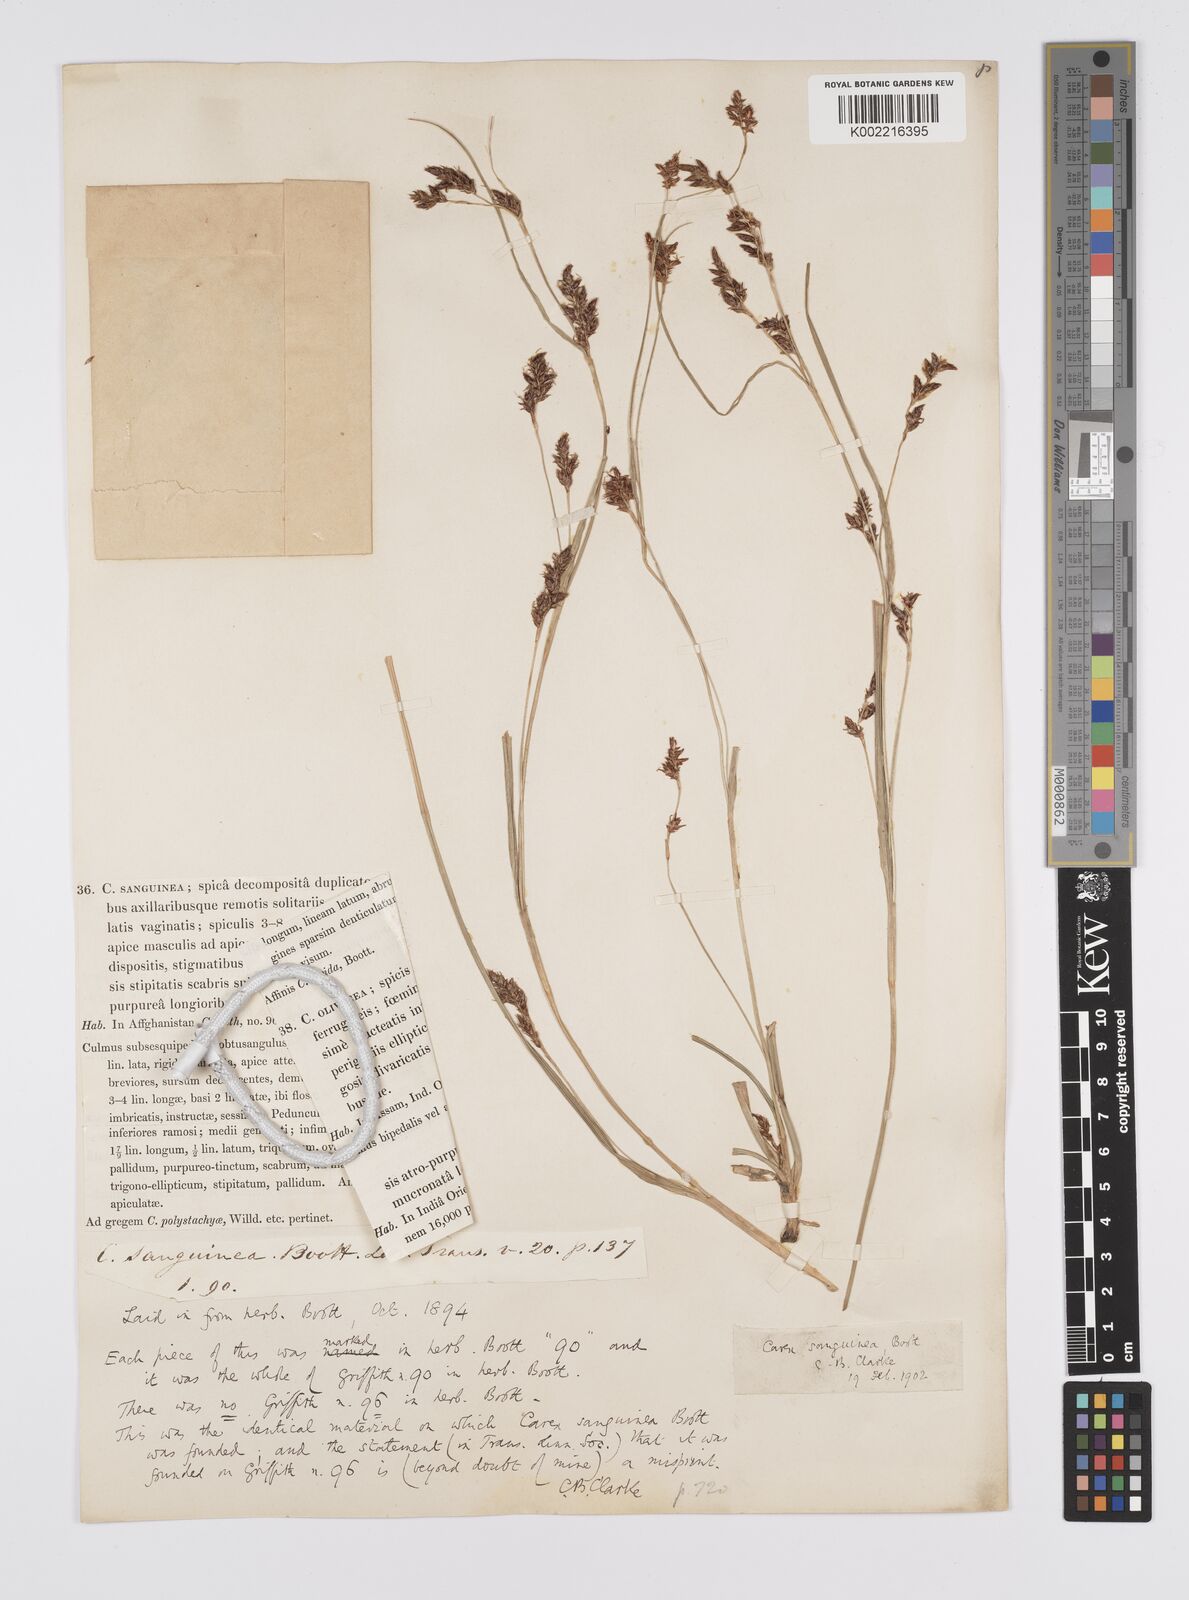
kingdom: Plantae
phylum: Tracheophyta
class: Liliopsida
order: Poales
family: Cyperaceae
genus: Carex
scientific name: Carex sanguinea
